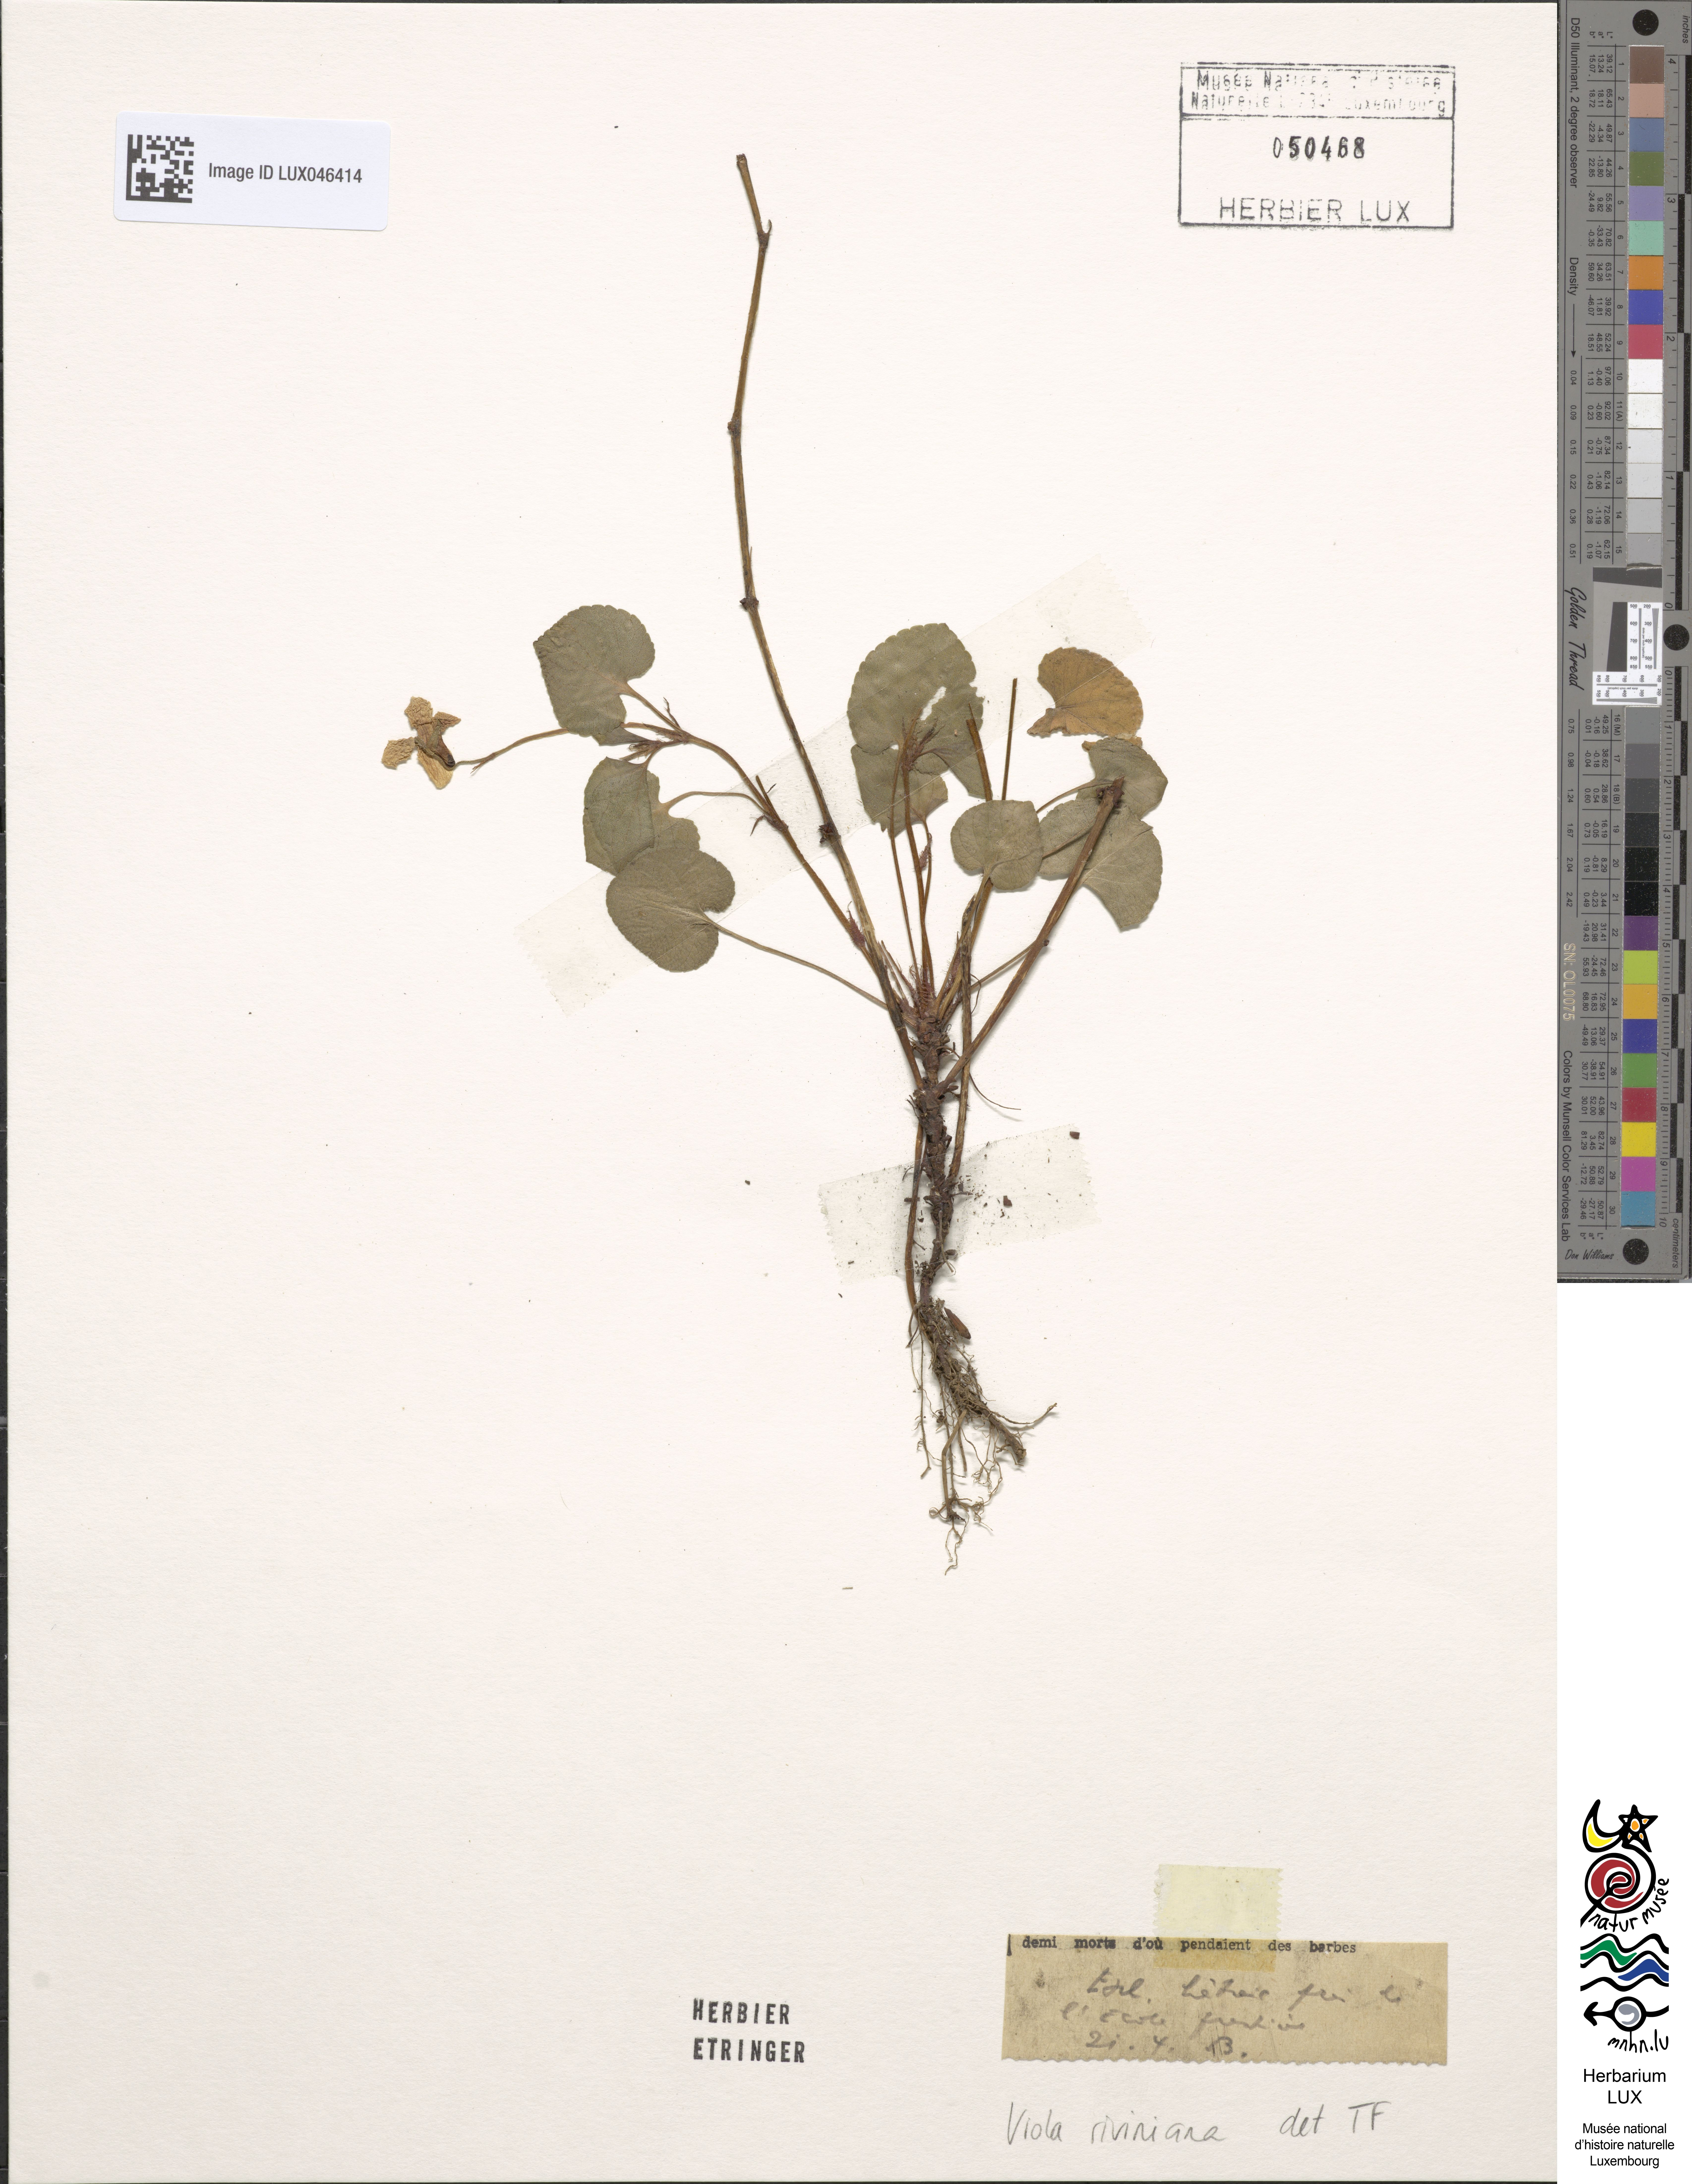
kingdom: Plantae
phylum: Tracheophyta
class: Magnoliopsida
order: Malpighiales
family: Violaceae
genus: Viola
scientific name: Viola riviniana
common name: Common dog-violet
